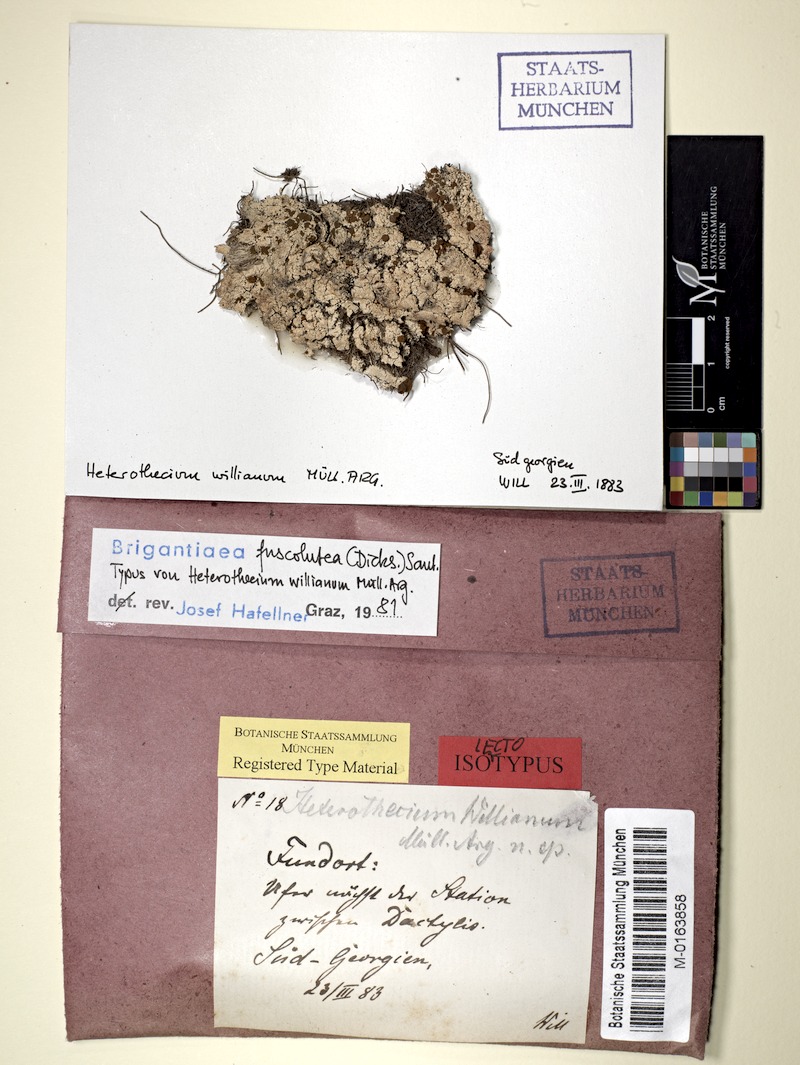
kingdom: Fungi
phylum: Ascomycota
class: Lecanoromycetes
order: Teloschistales
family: Brigantiaeaceae
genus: Brigantiaea
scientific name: Brigantiaea fuscolutea
